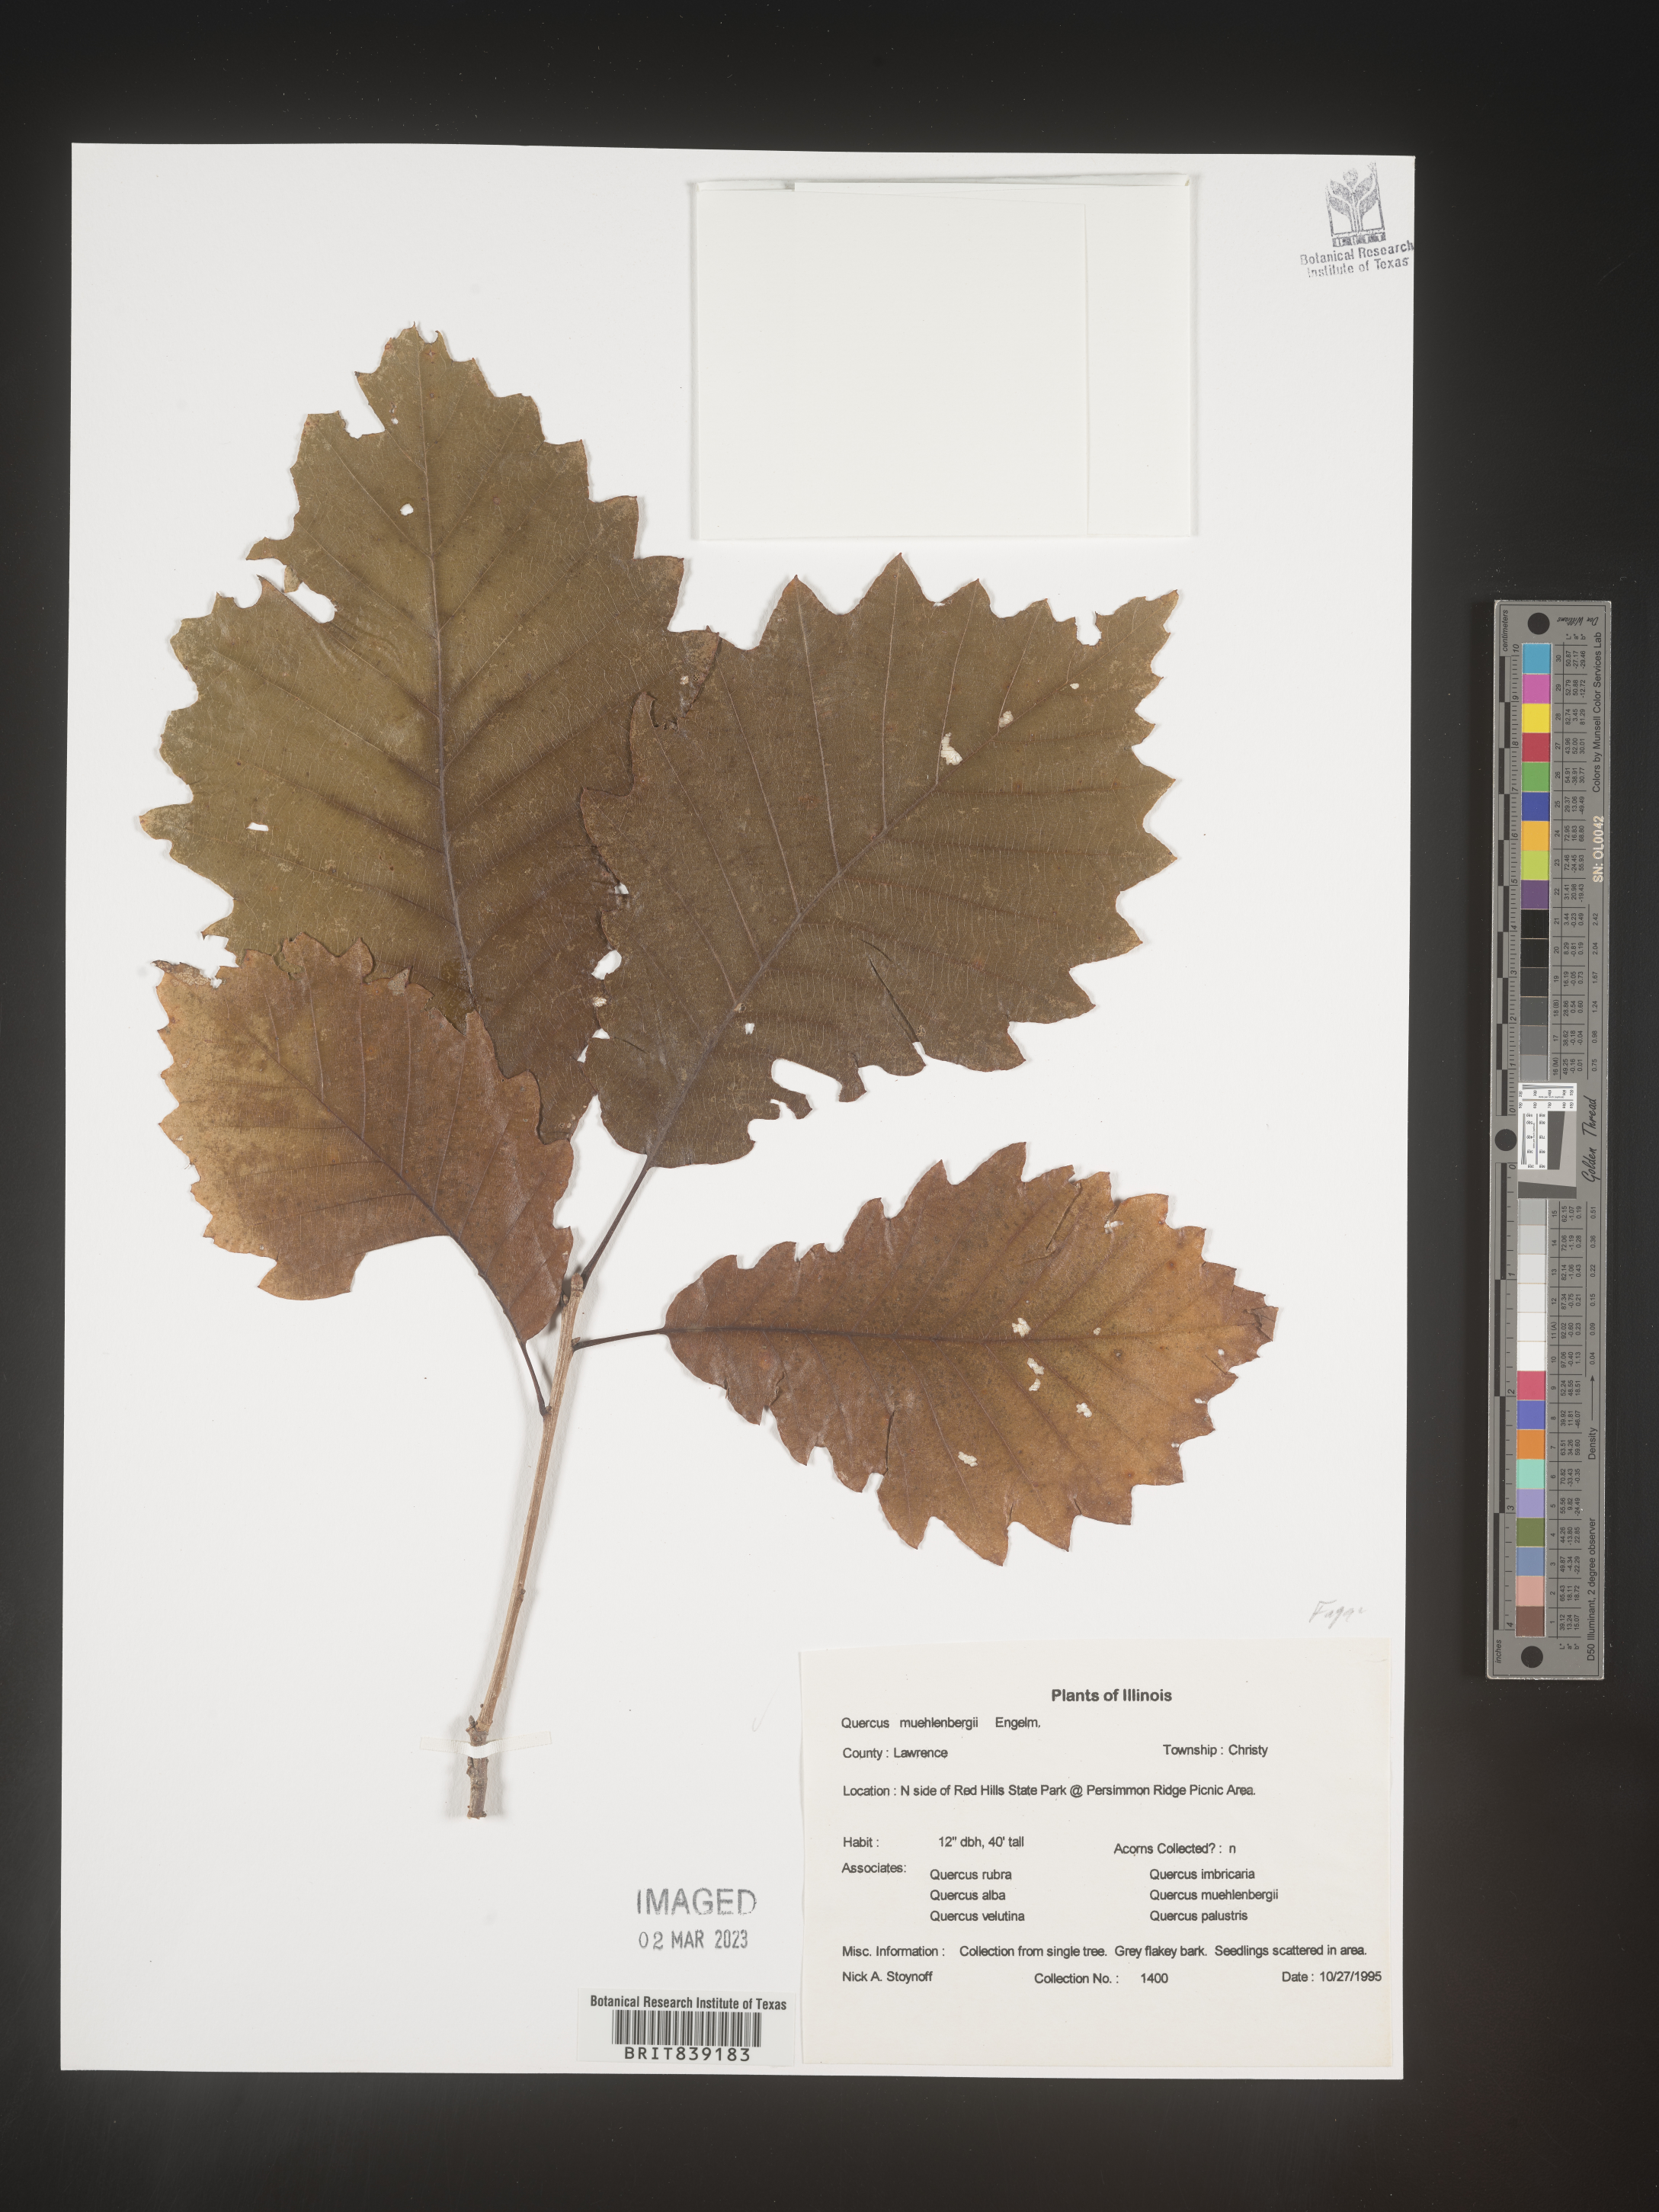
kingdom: Plantae
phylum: Tracheophyta
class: Magnoliopsida
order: Fagales
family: Fagaceae
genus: Quercus
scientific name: Quercus macrocarpa
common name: Bur oak
